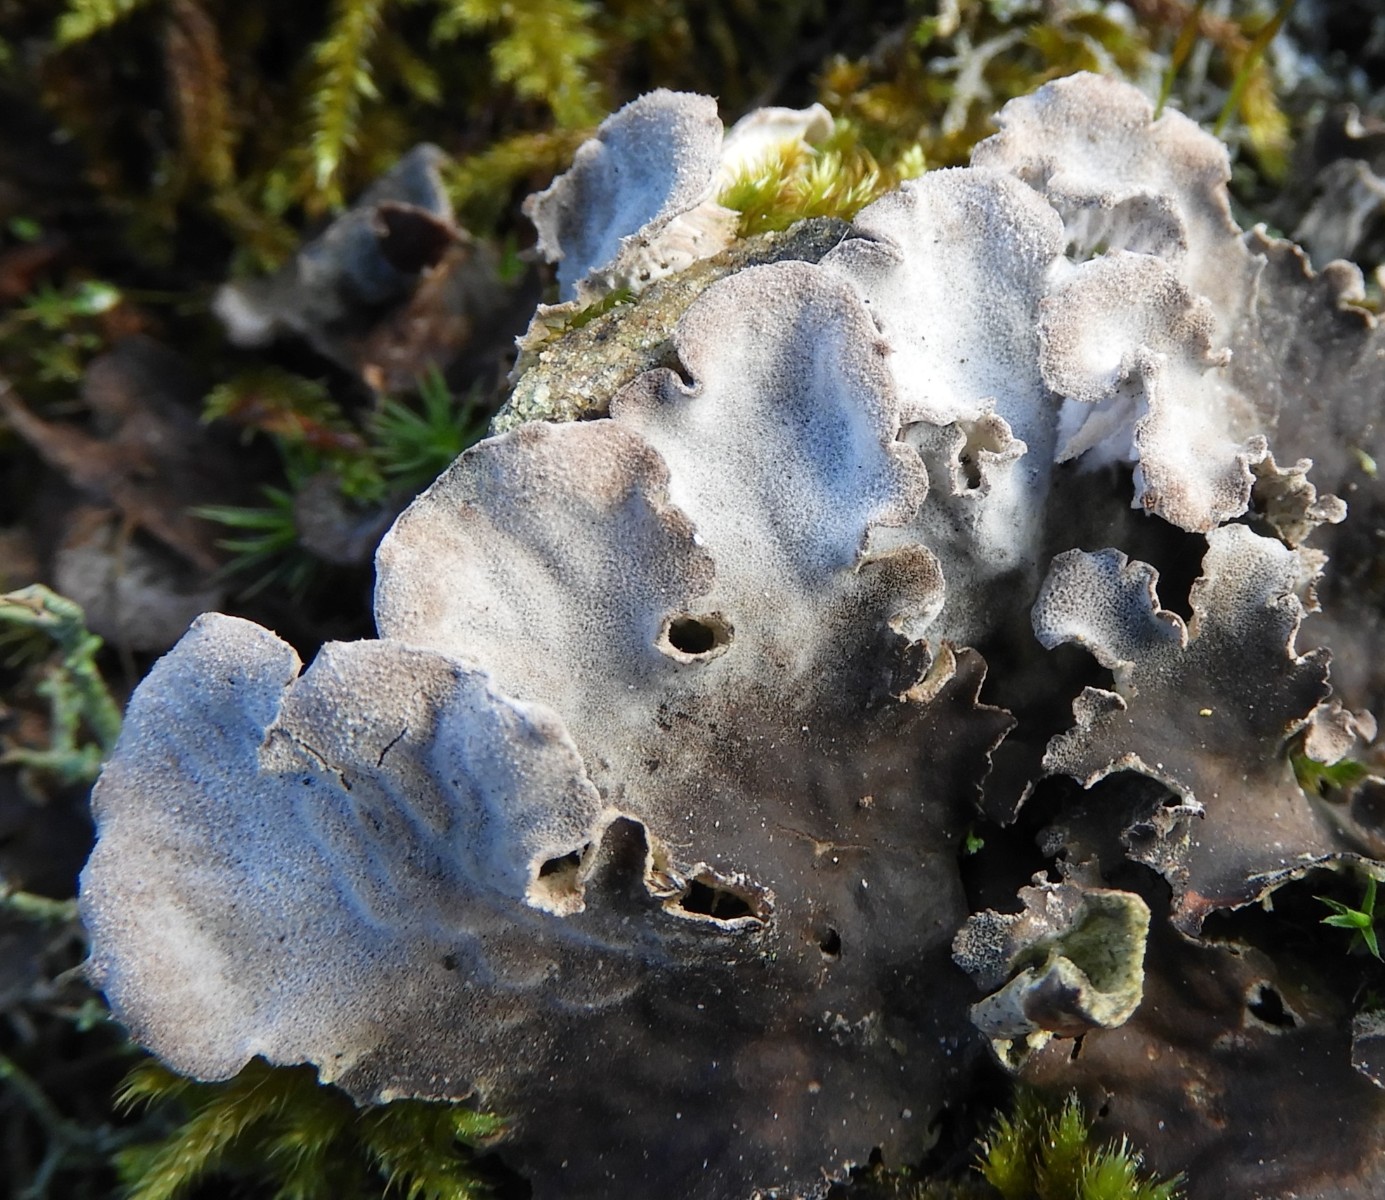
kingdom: Fungi
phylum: Ascomycota
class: Lecanoromycetes
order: Peltigerales
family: Peltigeraceae
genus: Peltigera
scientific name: Peltigera membranacea
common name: tynd skjoldlav
